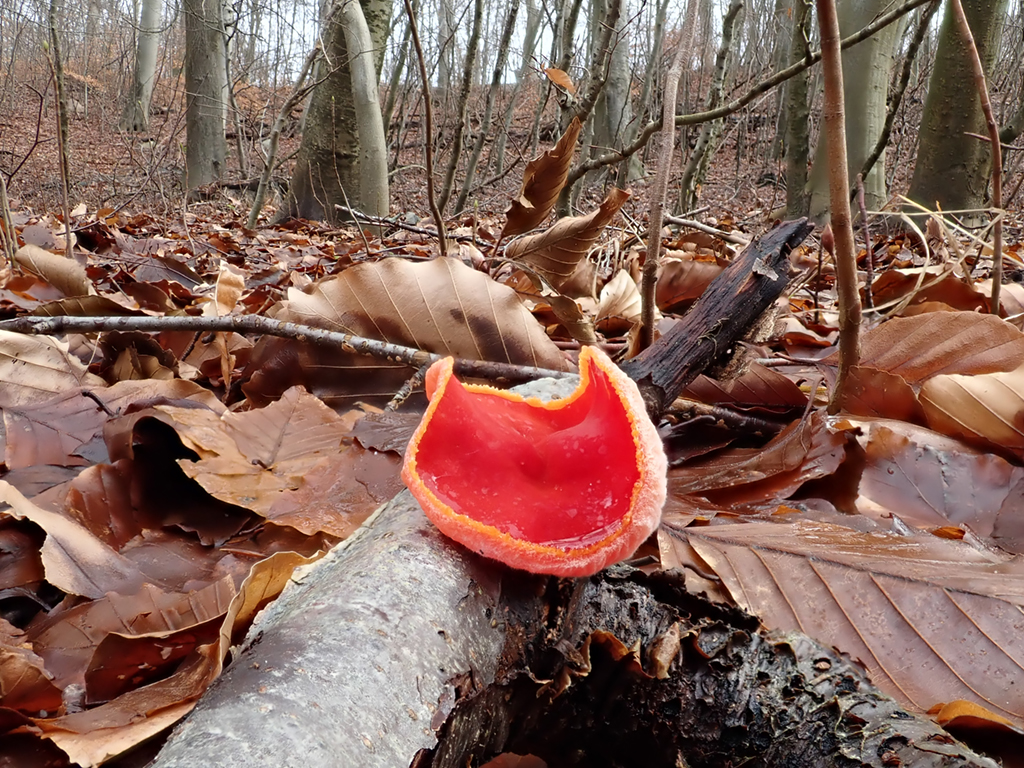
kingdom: Fungi
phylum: Ascomycota
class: Pezizomycetes
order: Pezizales
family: Sarcoscyphaceae
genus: Sarcoscypha
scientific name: Sarcoscypha coccinea
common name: skarlagen-pragtbæger
